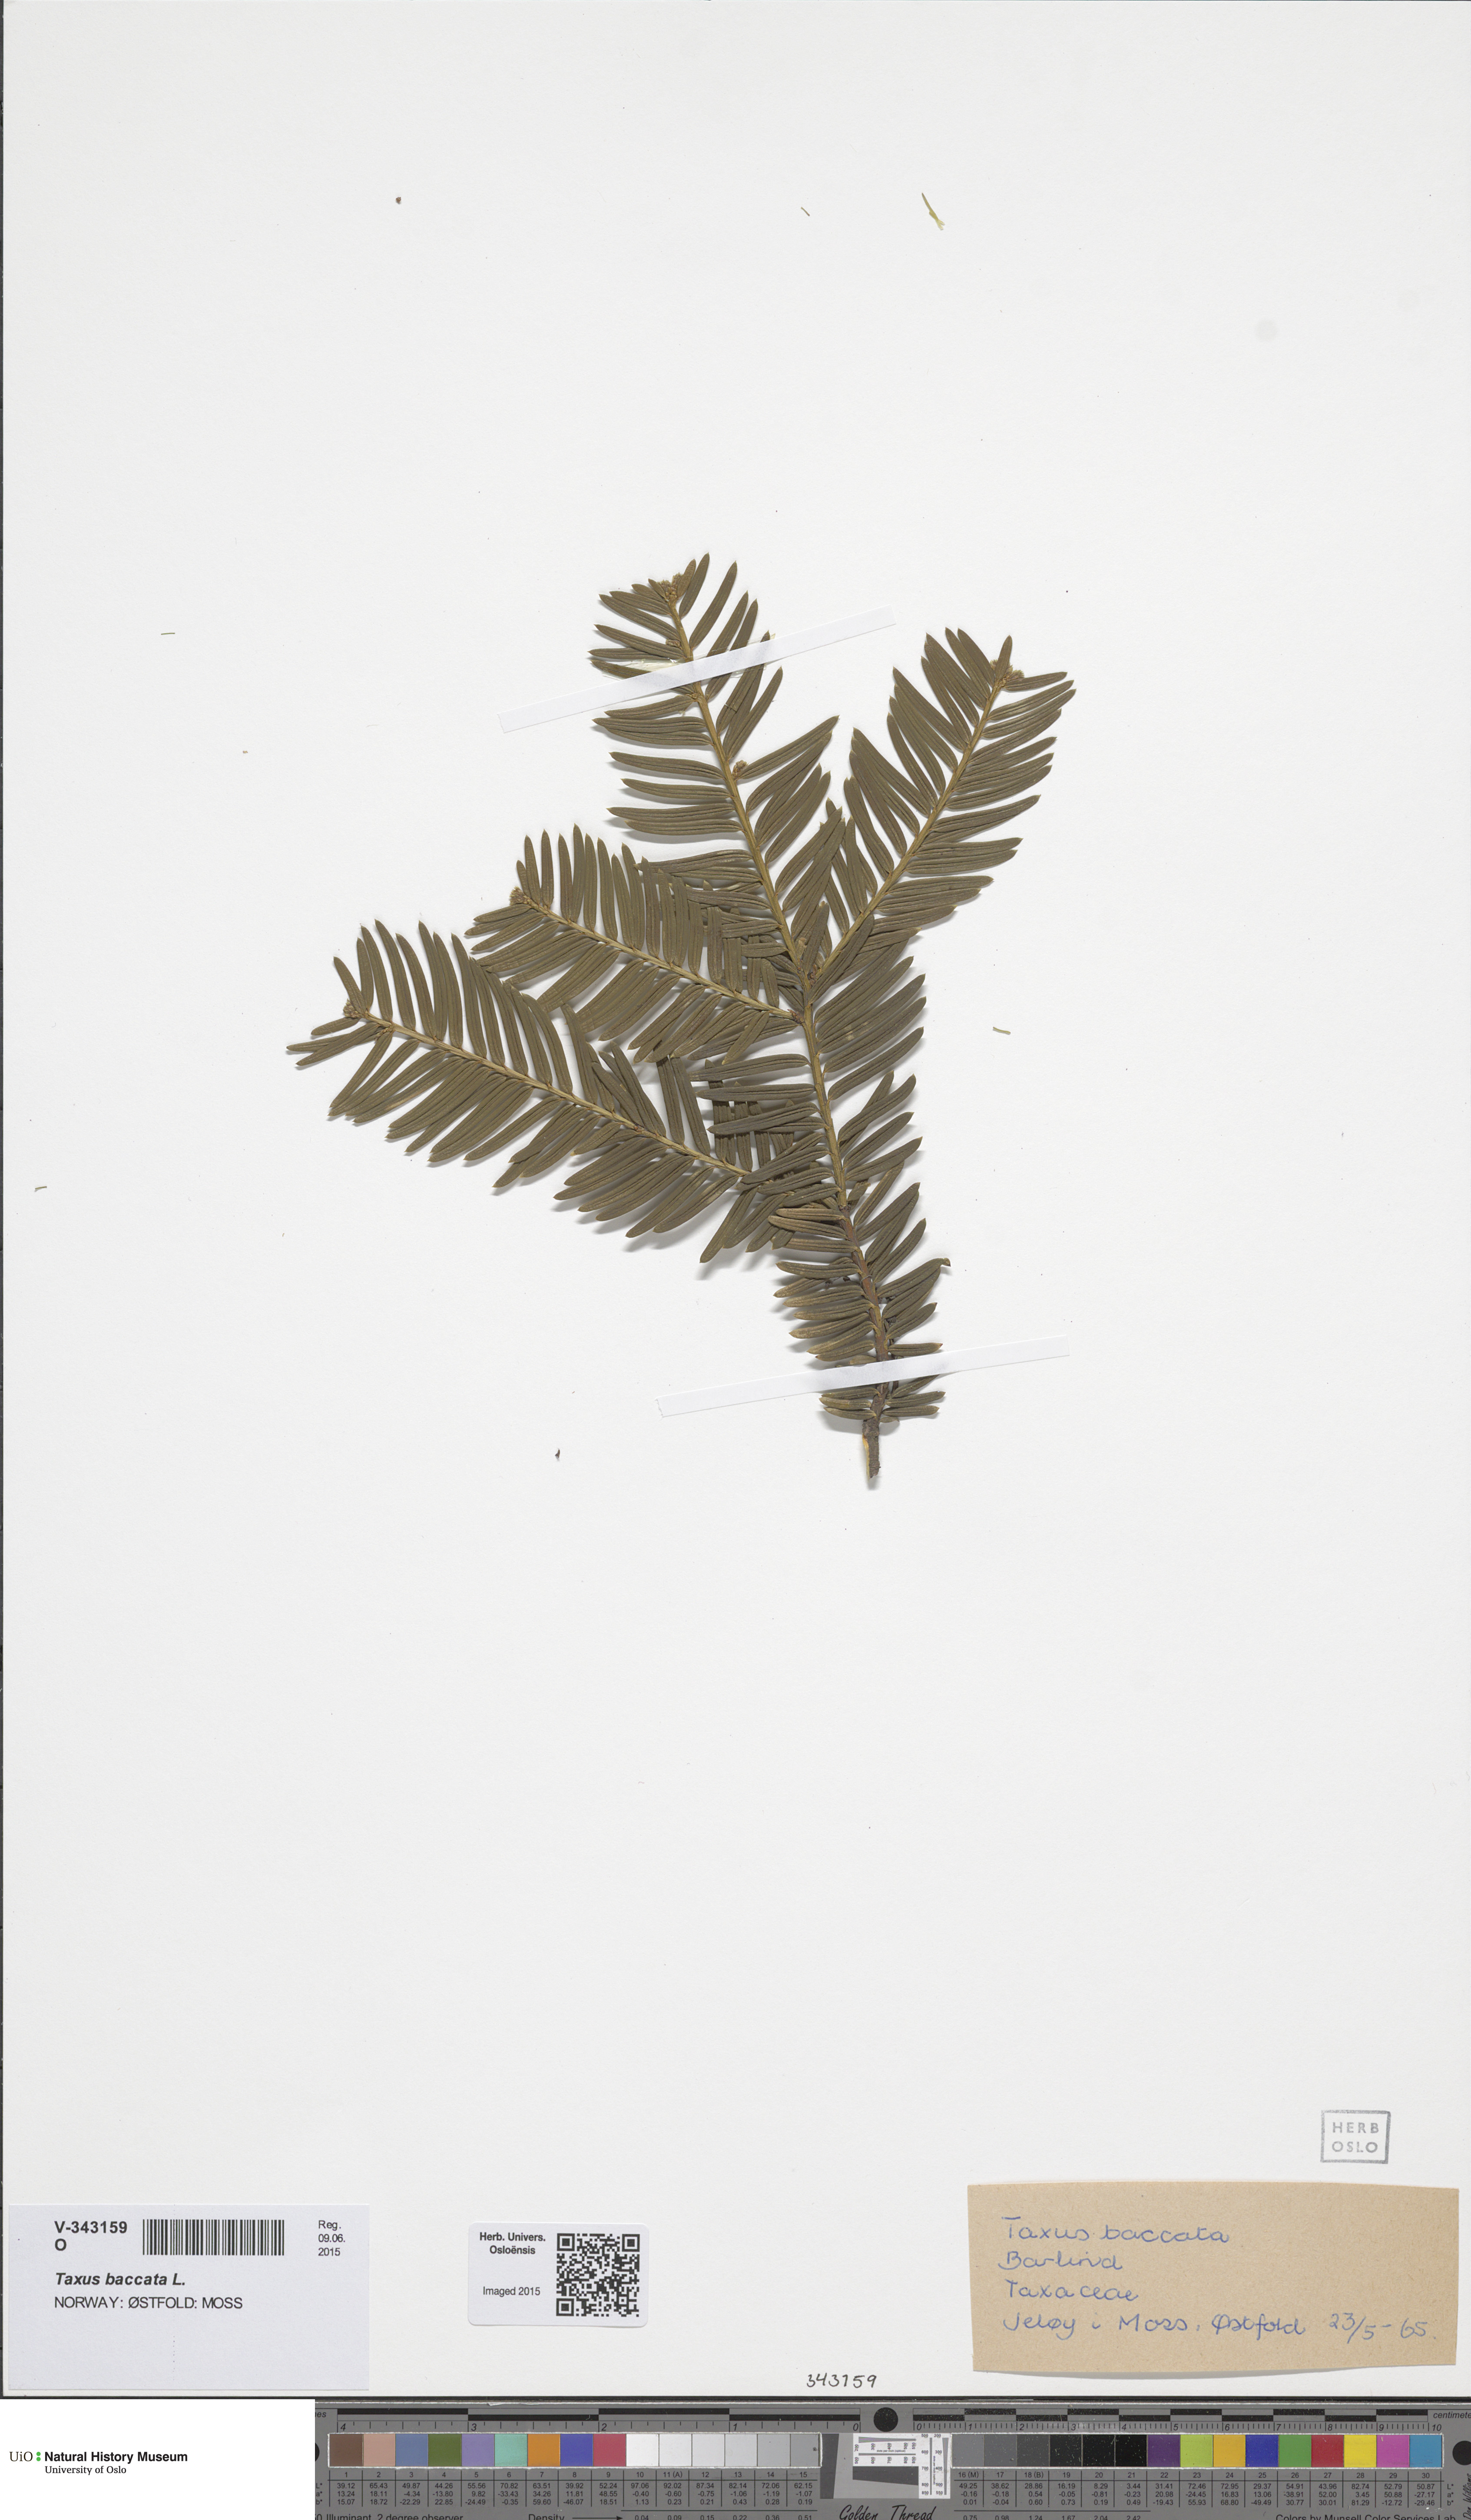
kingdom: Plantae
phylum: Tracheophyta
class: Pinopsida
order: Pinales
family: Taxaceae
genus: Taxus
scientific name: Taxus media
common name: Hybrid yew
